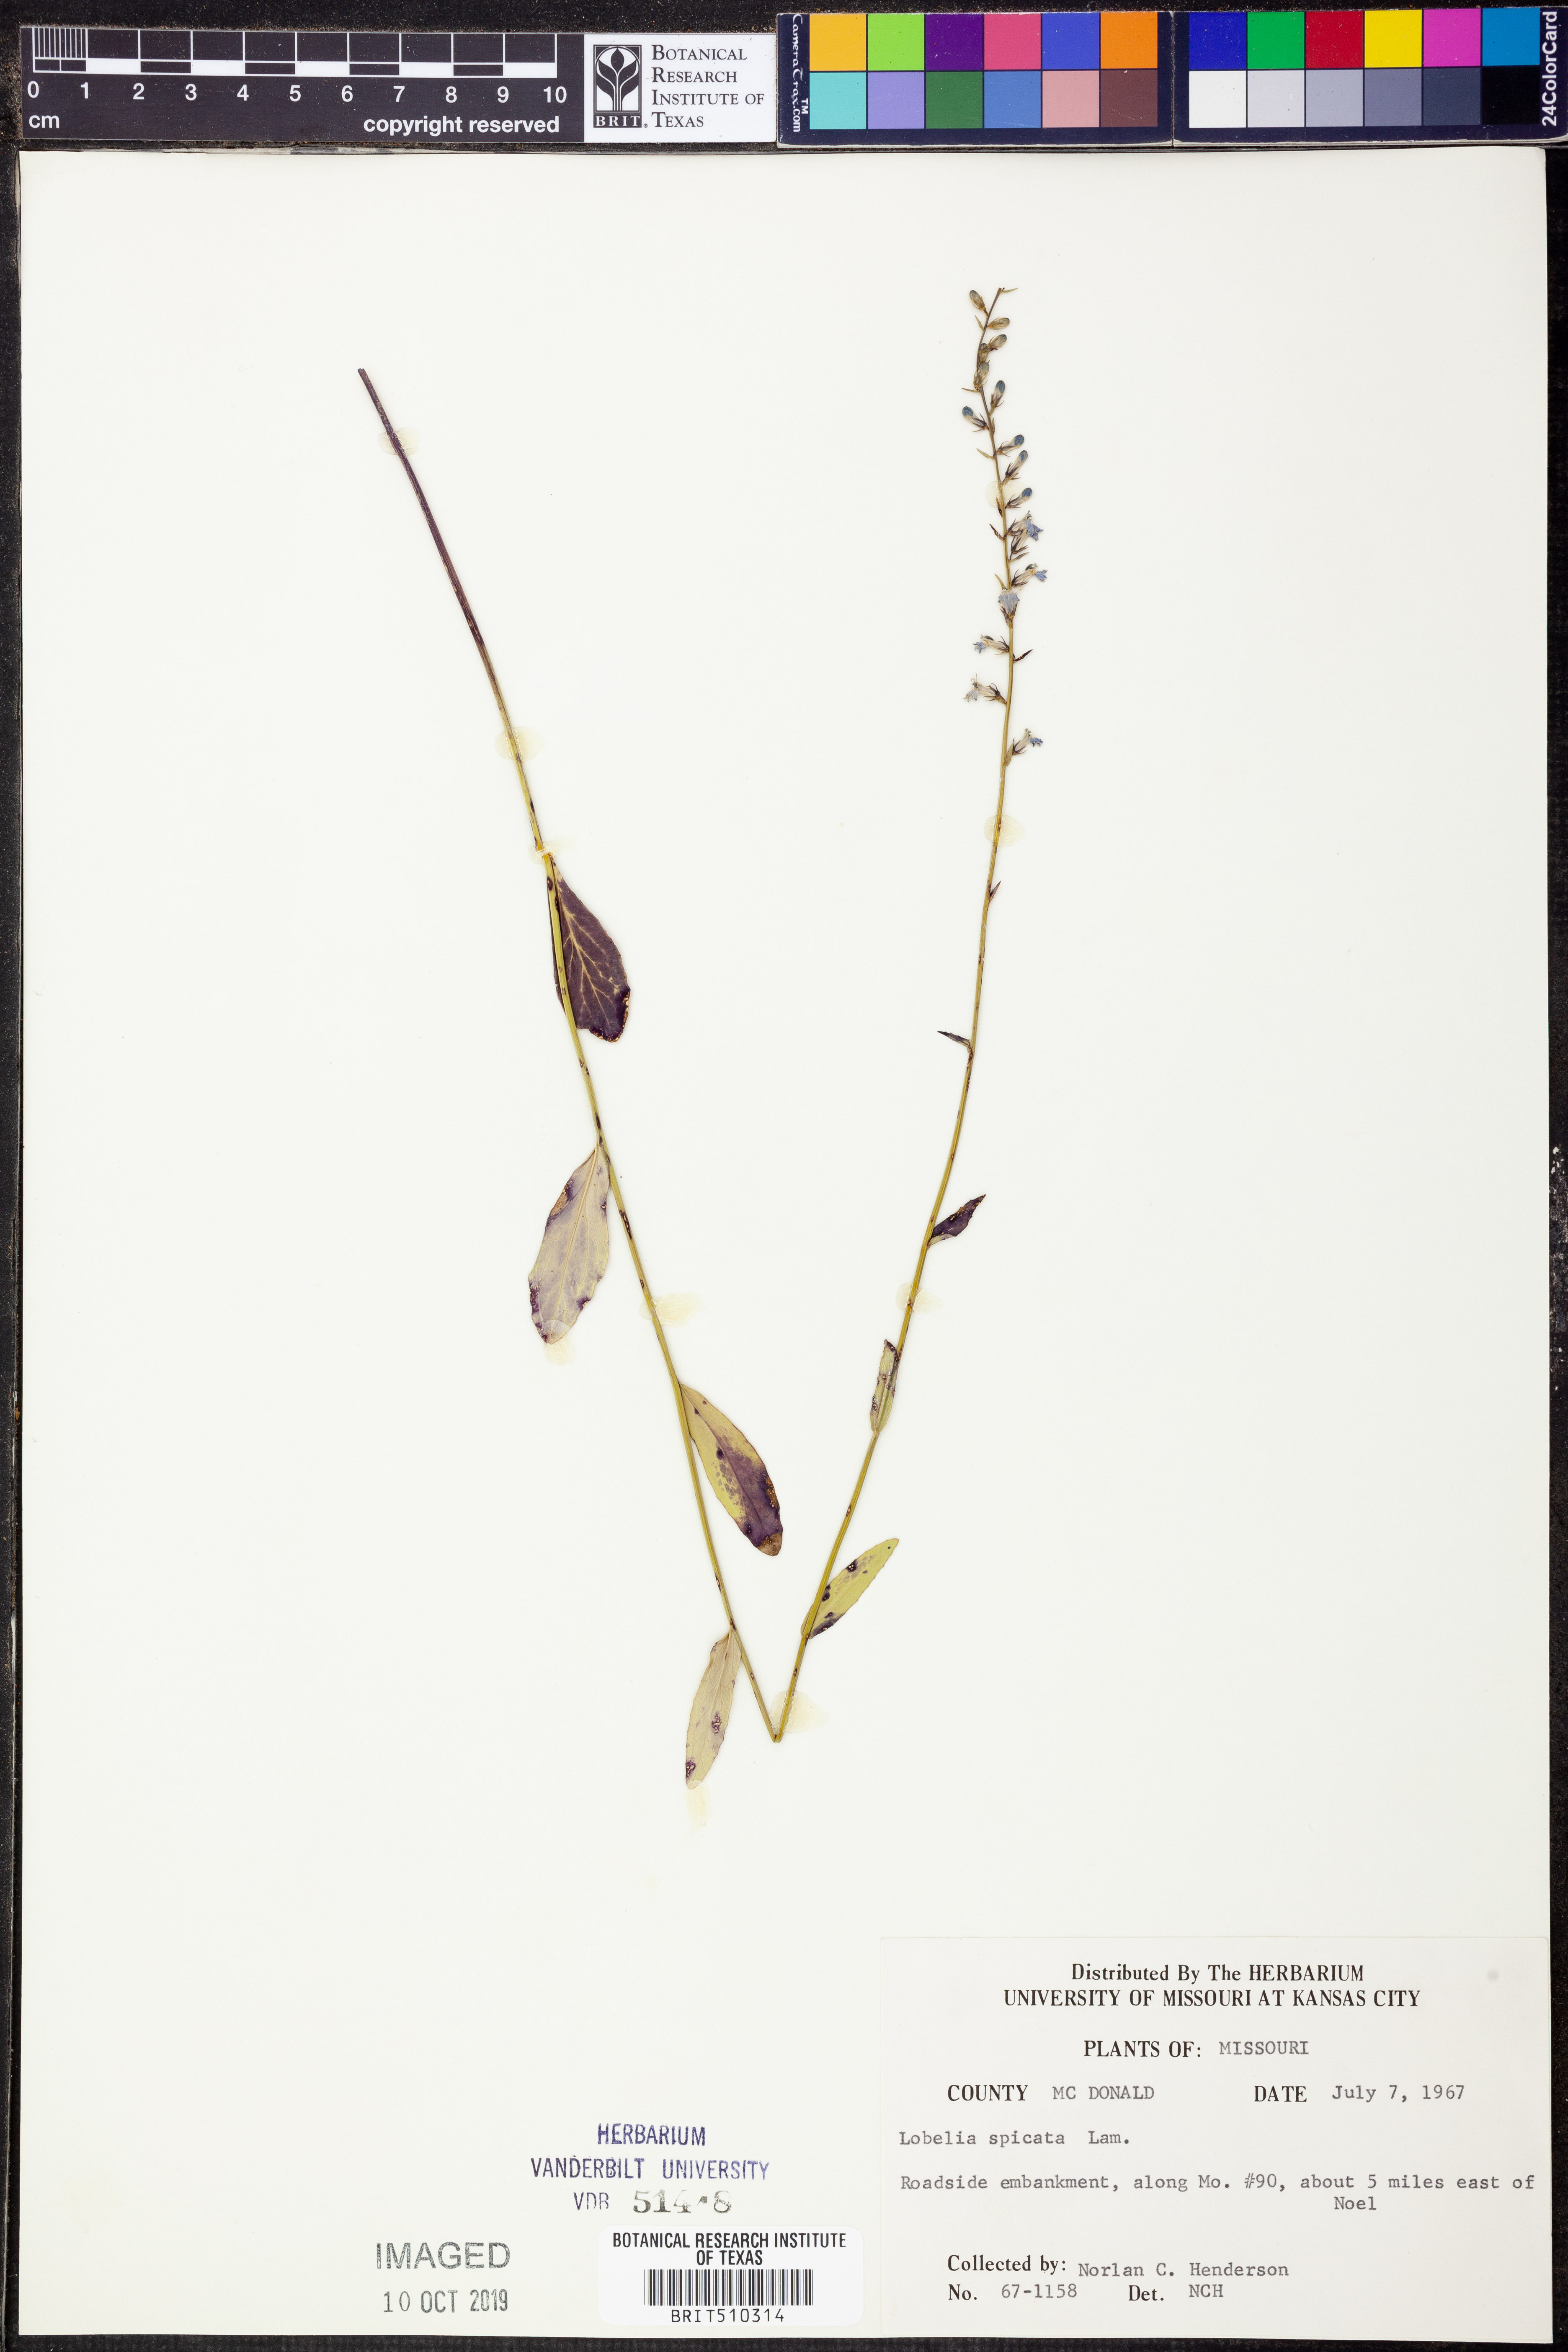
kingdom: Plantae
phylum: Tracheophyta
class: Magnoliopsida
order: Asterales
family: Campanulaceae
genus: Lobelia
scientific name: Lobelia spicata
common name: Pale-spike lobelia
